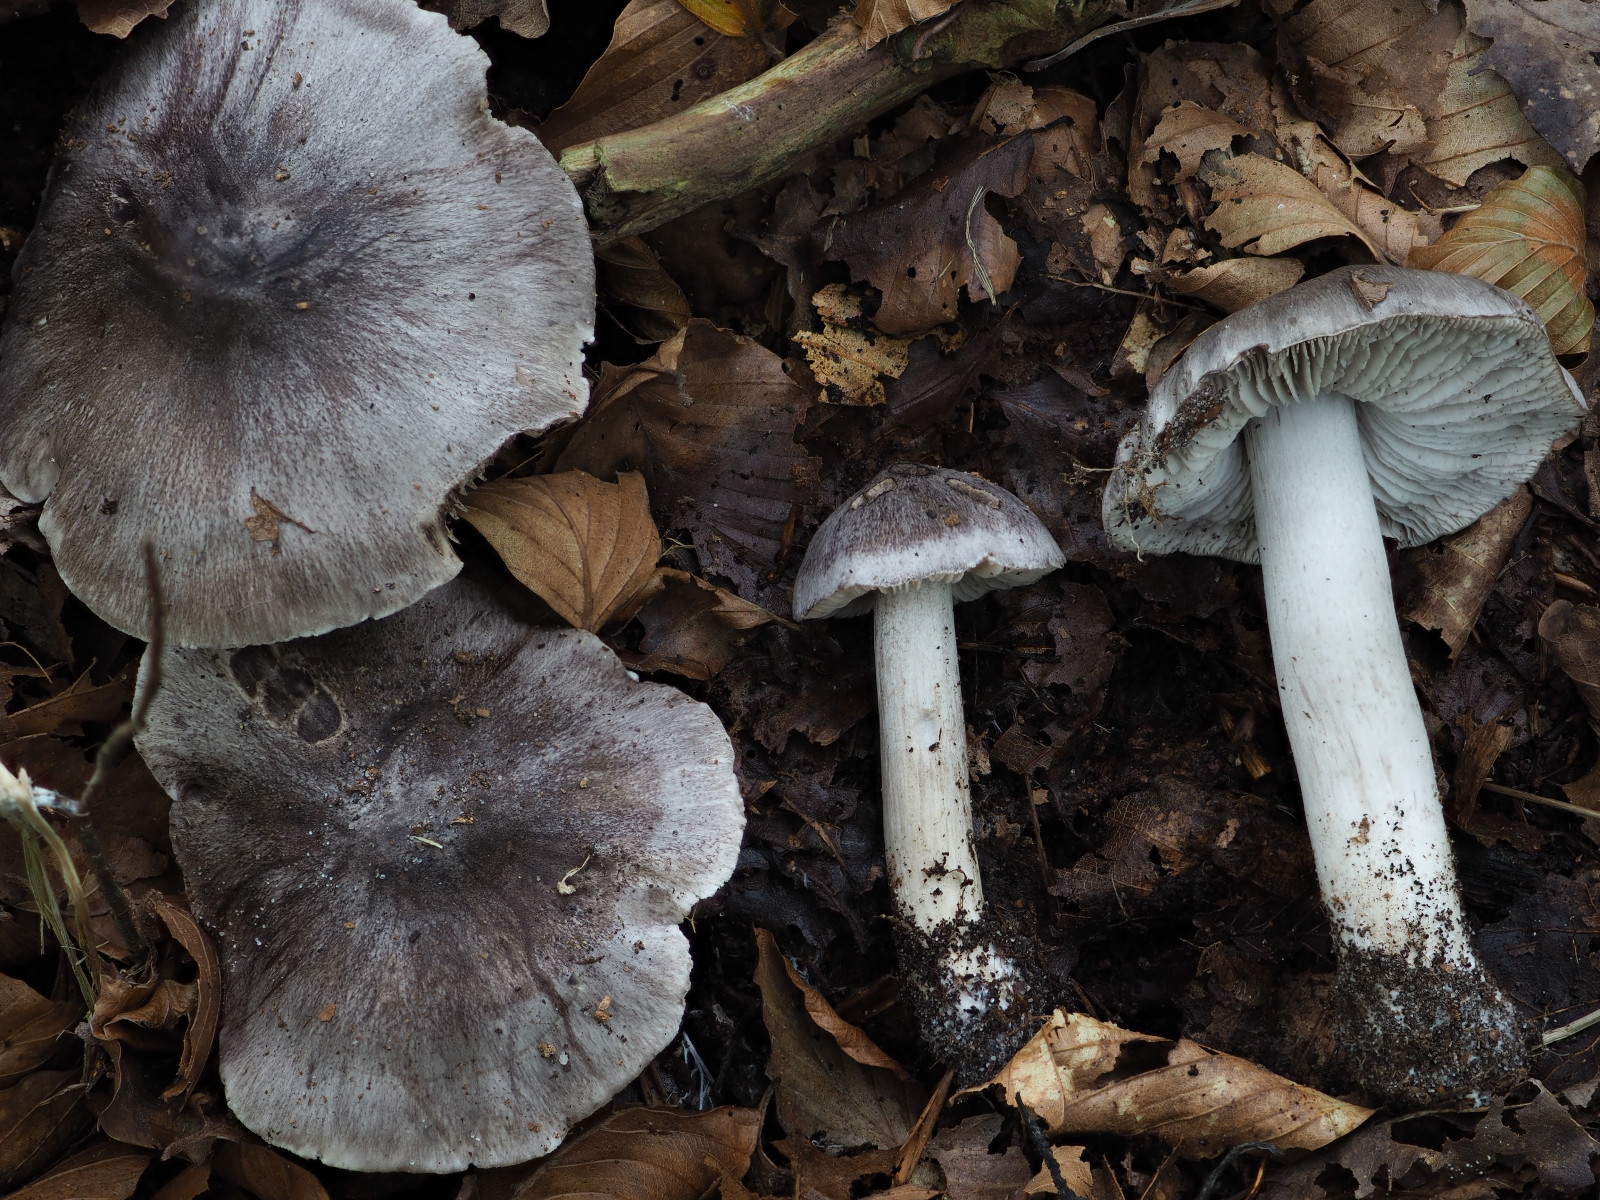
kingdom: Fungi
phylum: Basidiomycota
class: Agaricomycetes
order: Agaricales
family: Tricholomataceae
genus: Tricholoma
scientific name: Tricholoma sciodes
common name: stribet ridderhat
